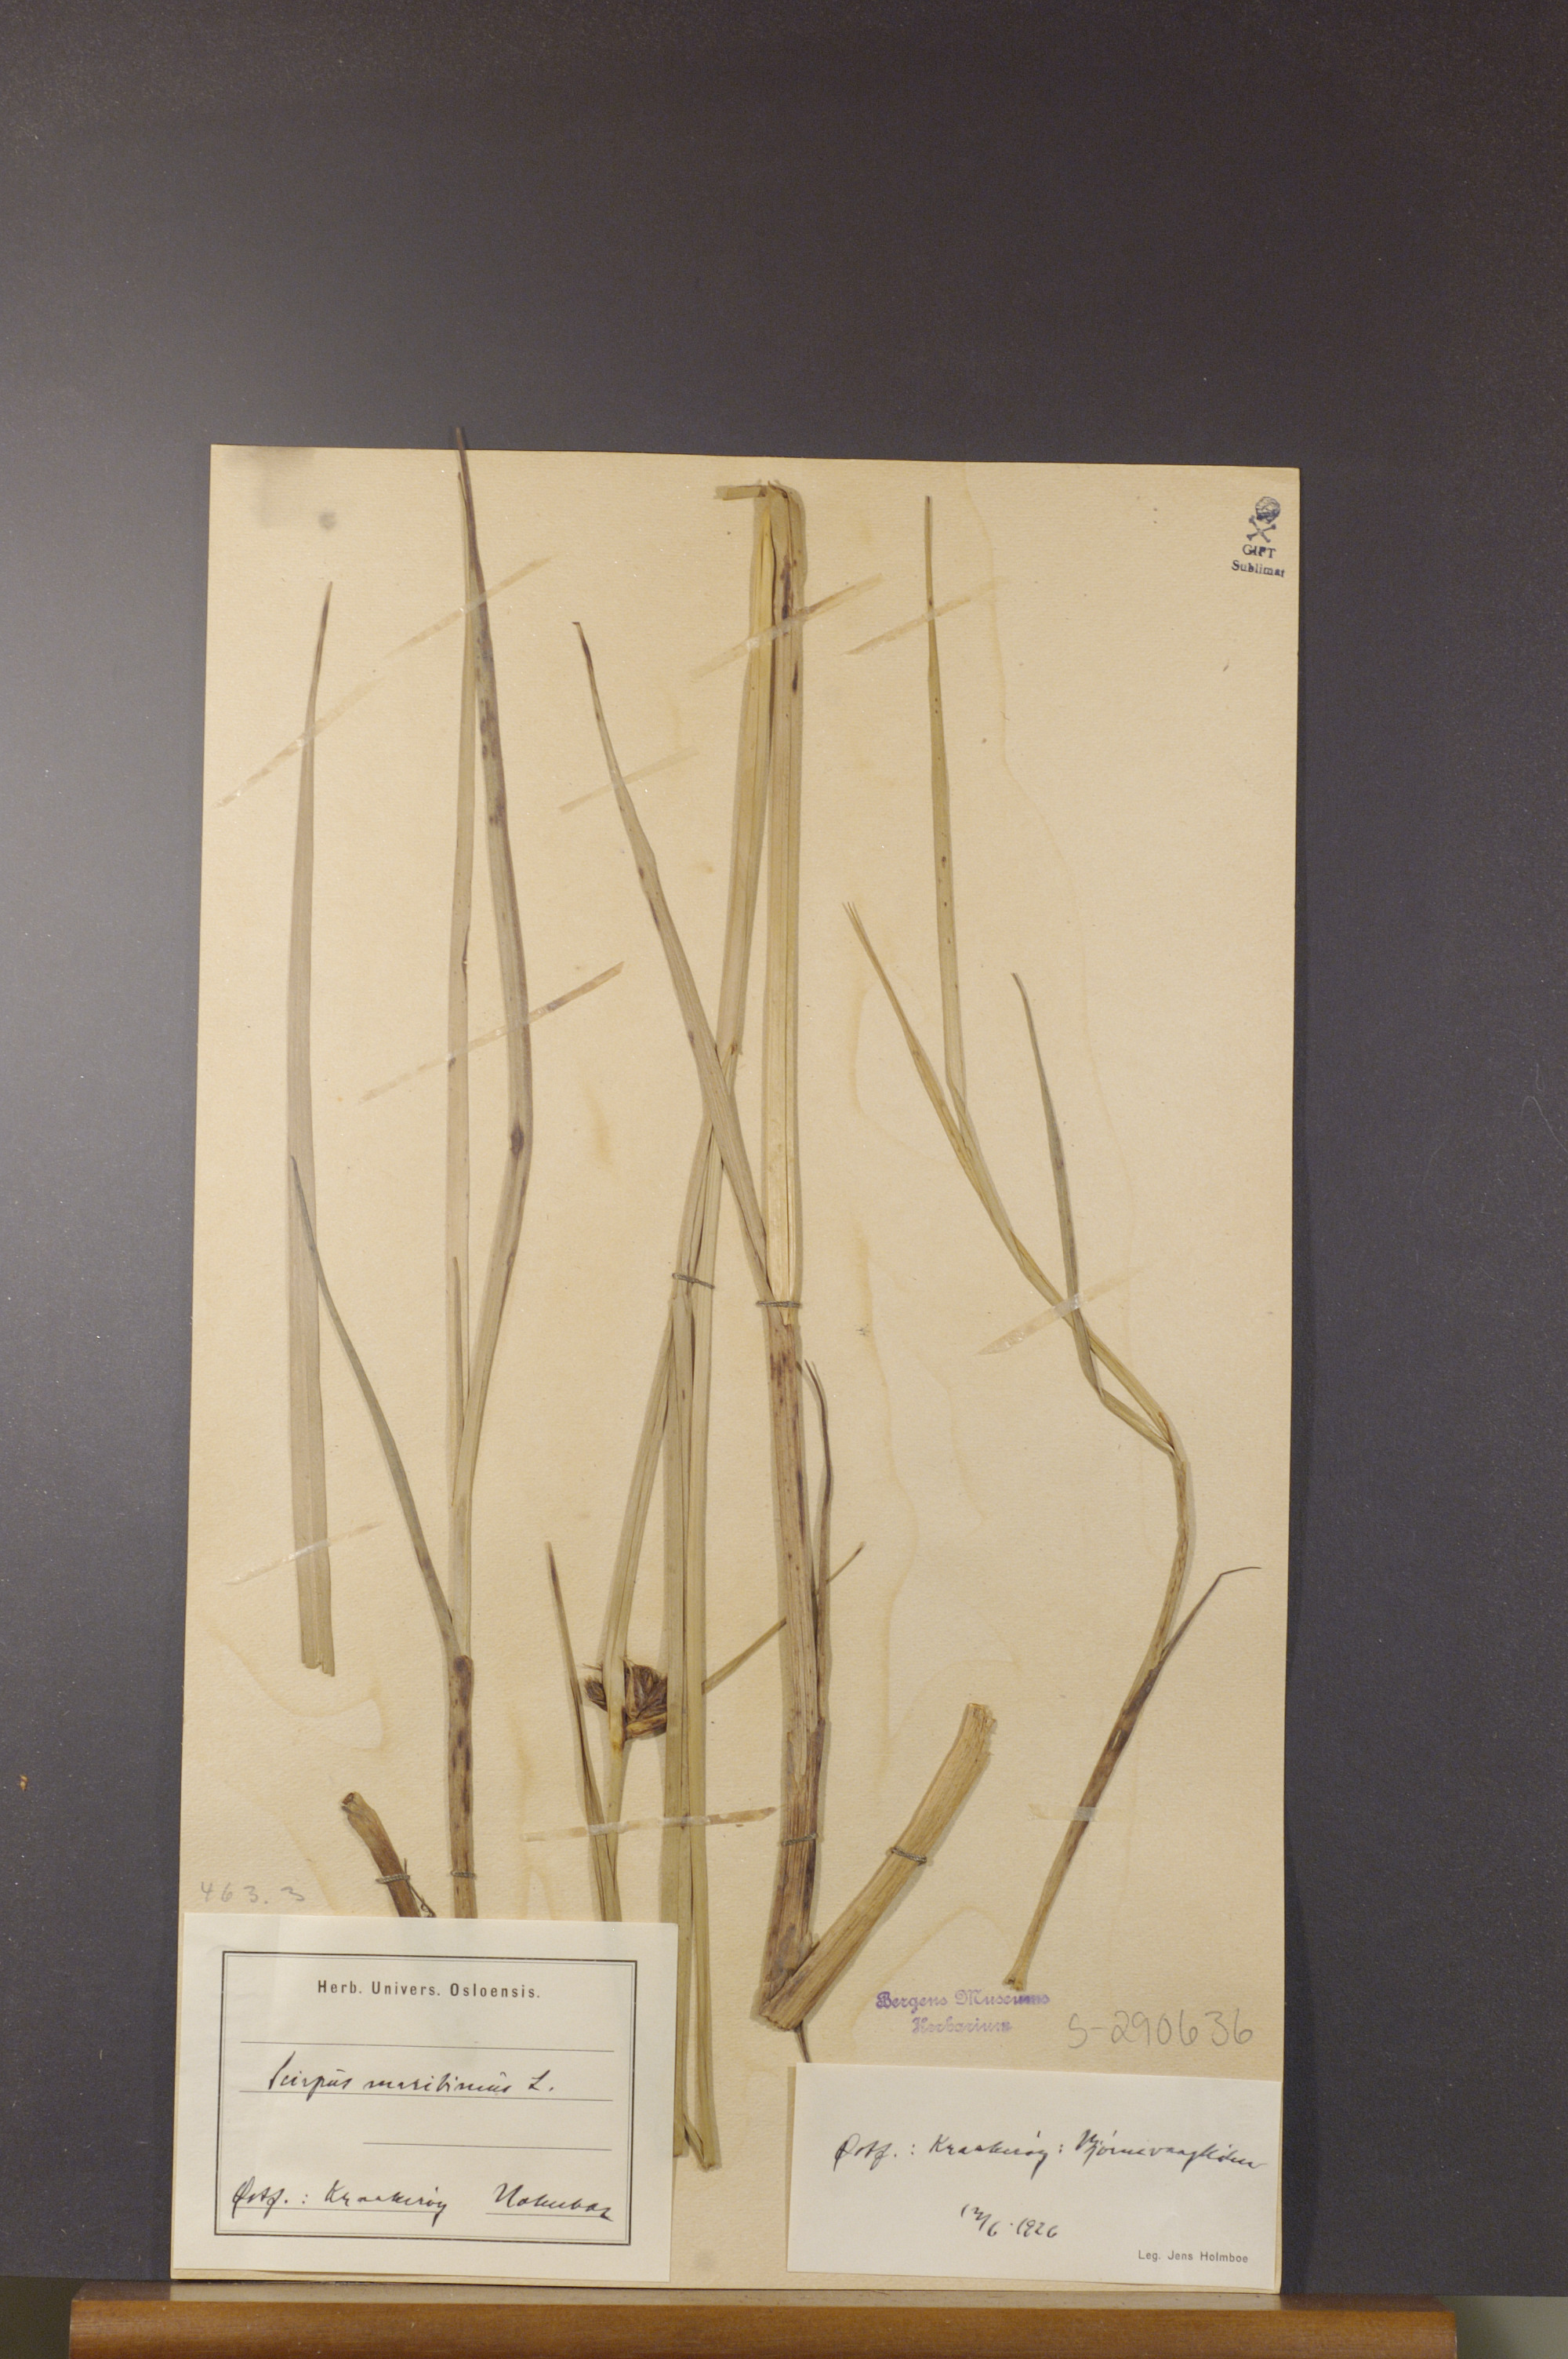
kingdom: Plantae
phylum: Tracheophyta
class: Liliopsida
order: Poales
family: Cyperaceae
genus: Bolboschoenus
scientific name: Bolboschoenus maritimus
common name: Sea club-rush
